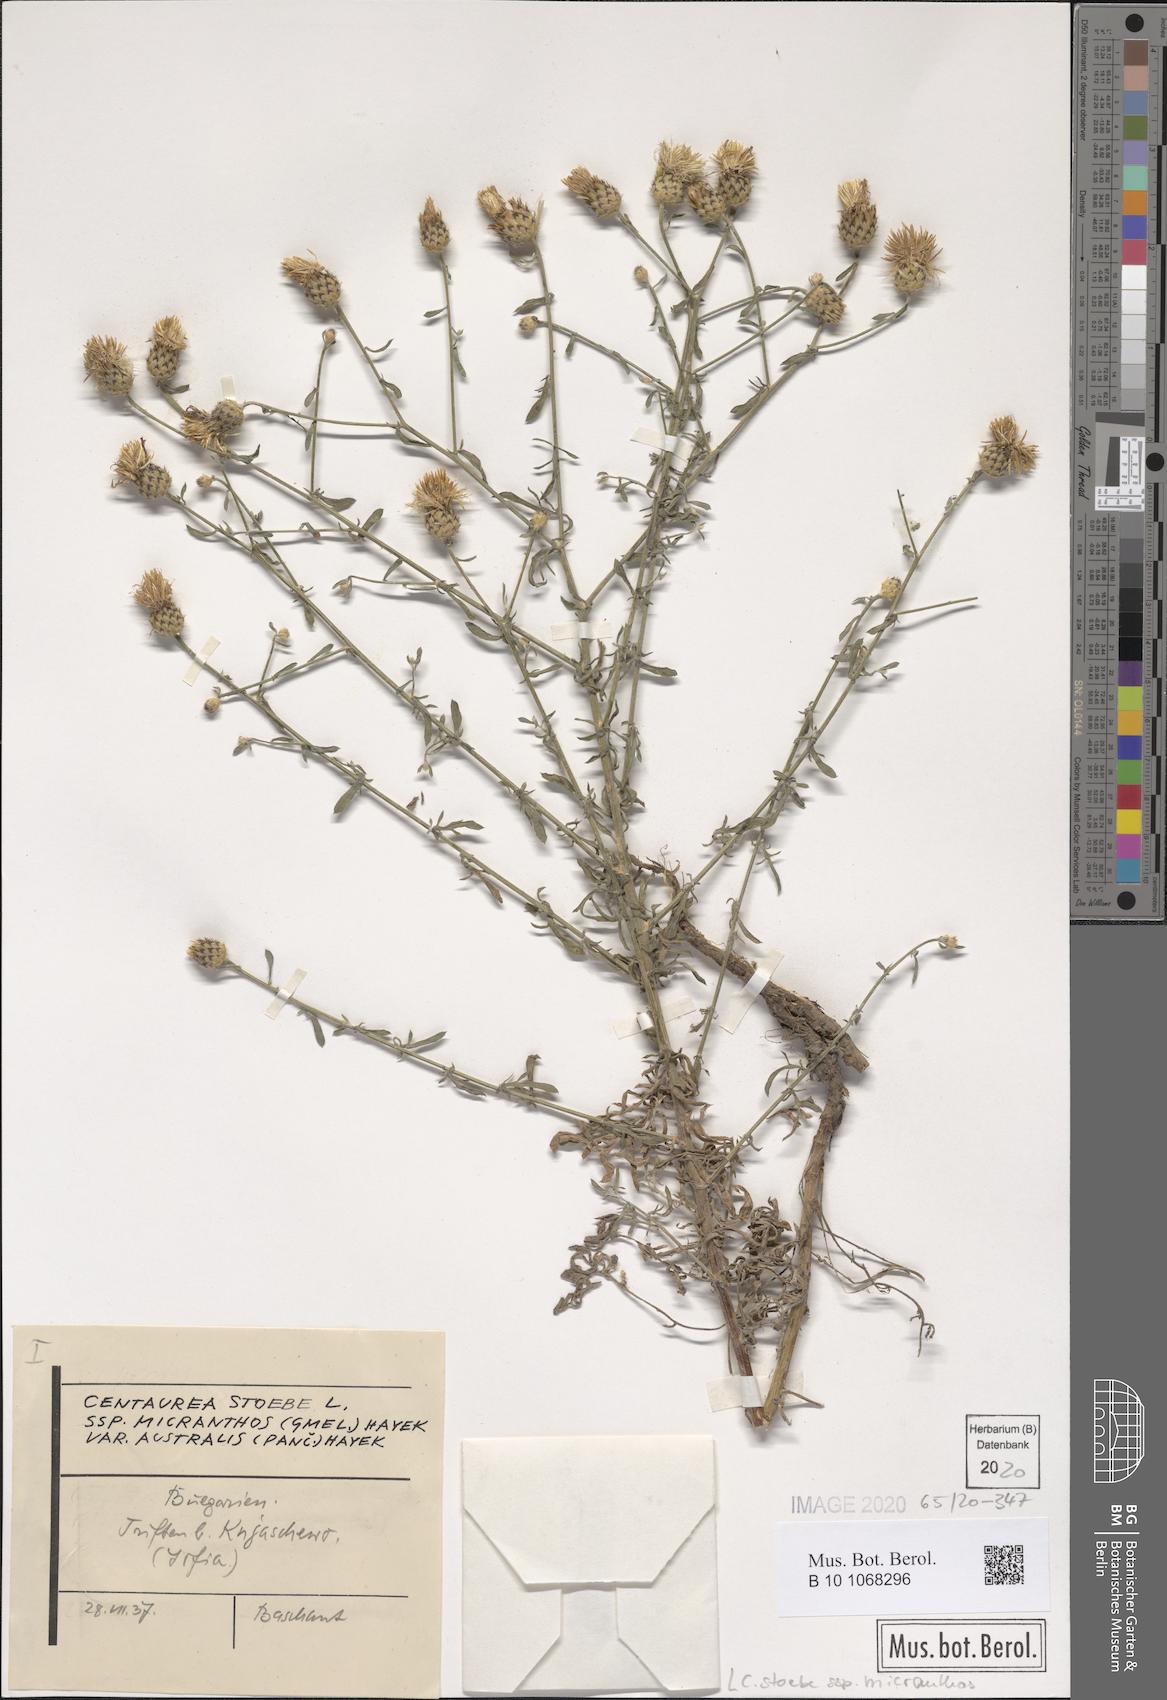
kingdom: Plantae
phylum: Tracheophyta
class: Magnoliopsida
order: Asterales
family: Asteraceae
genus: Centaurea
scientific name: Centaurea australis
